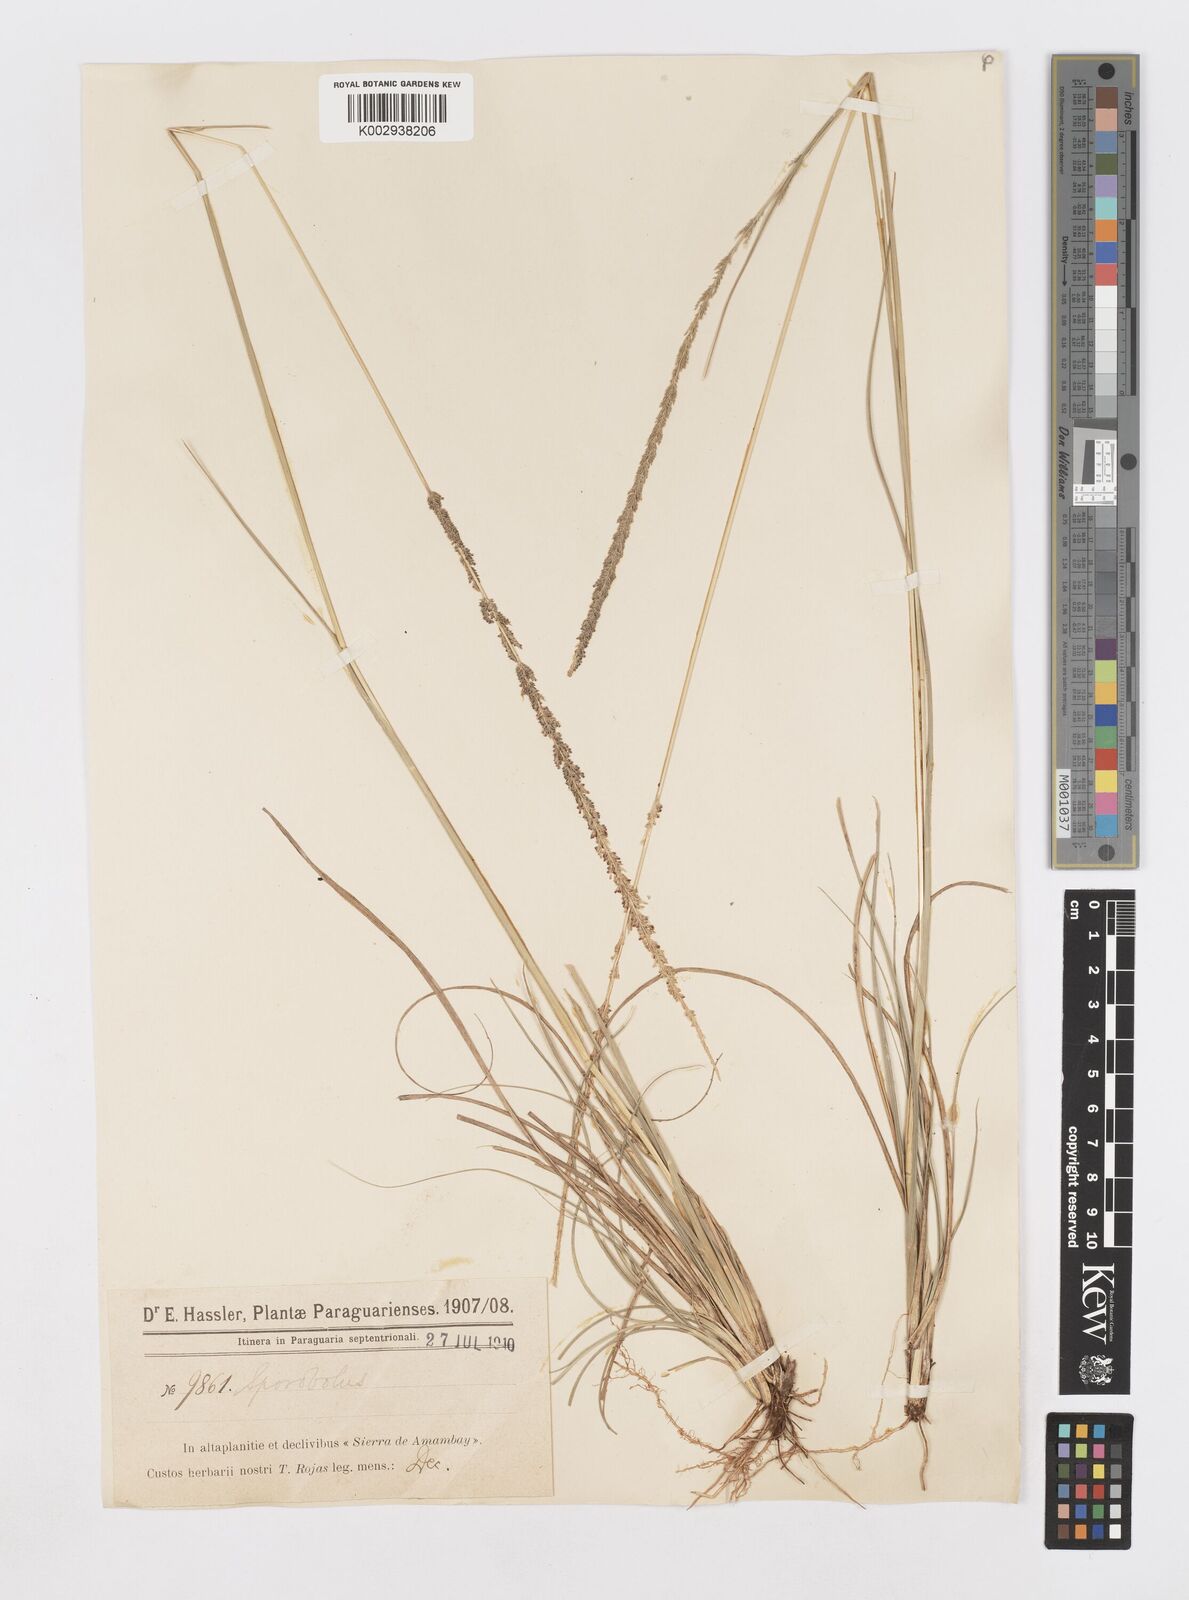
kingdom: Plantae
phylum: Tracheophyta
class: Liliopsida
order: Poales
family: Poaceae
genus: Sporobolus
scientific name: Sporobolus indicus
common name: Smut grass
